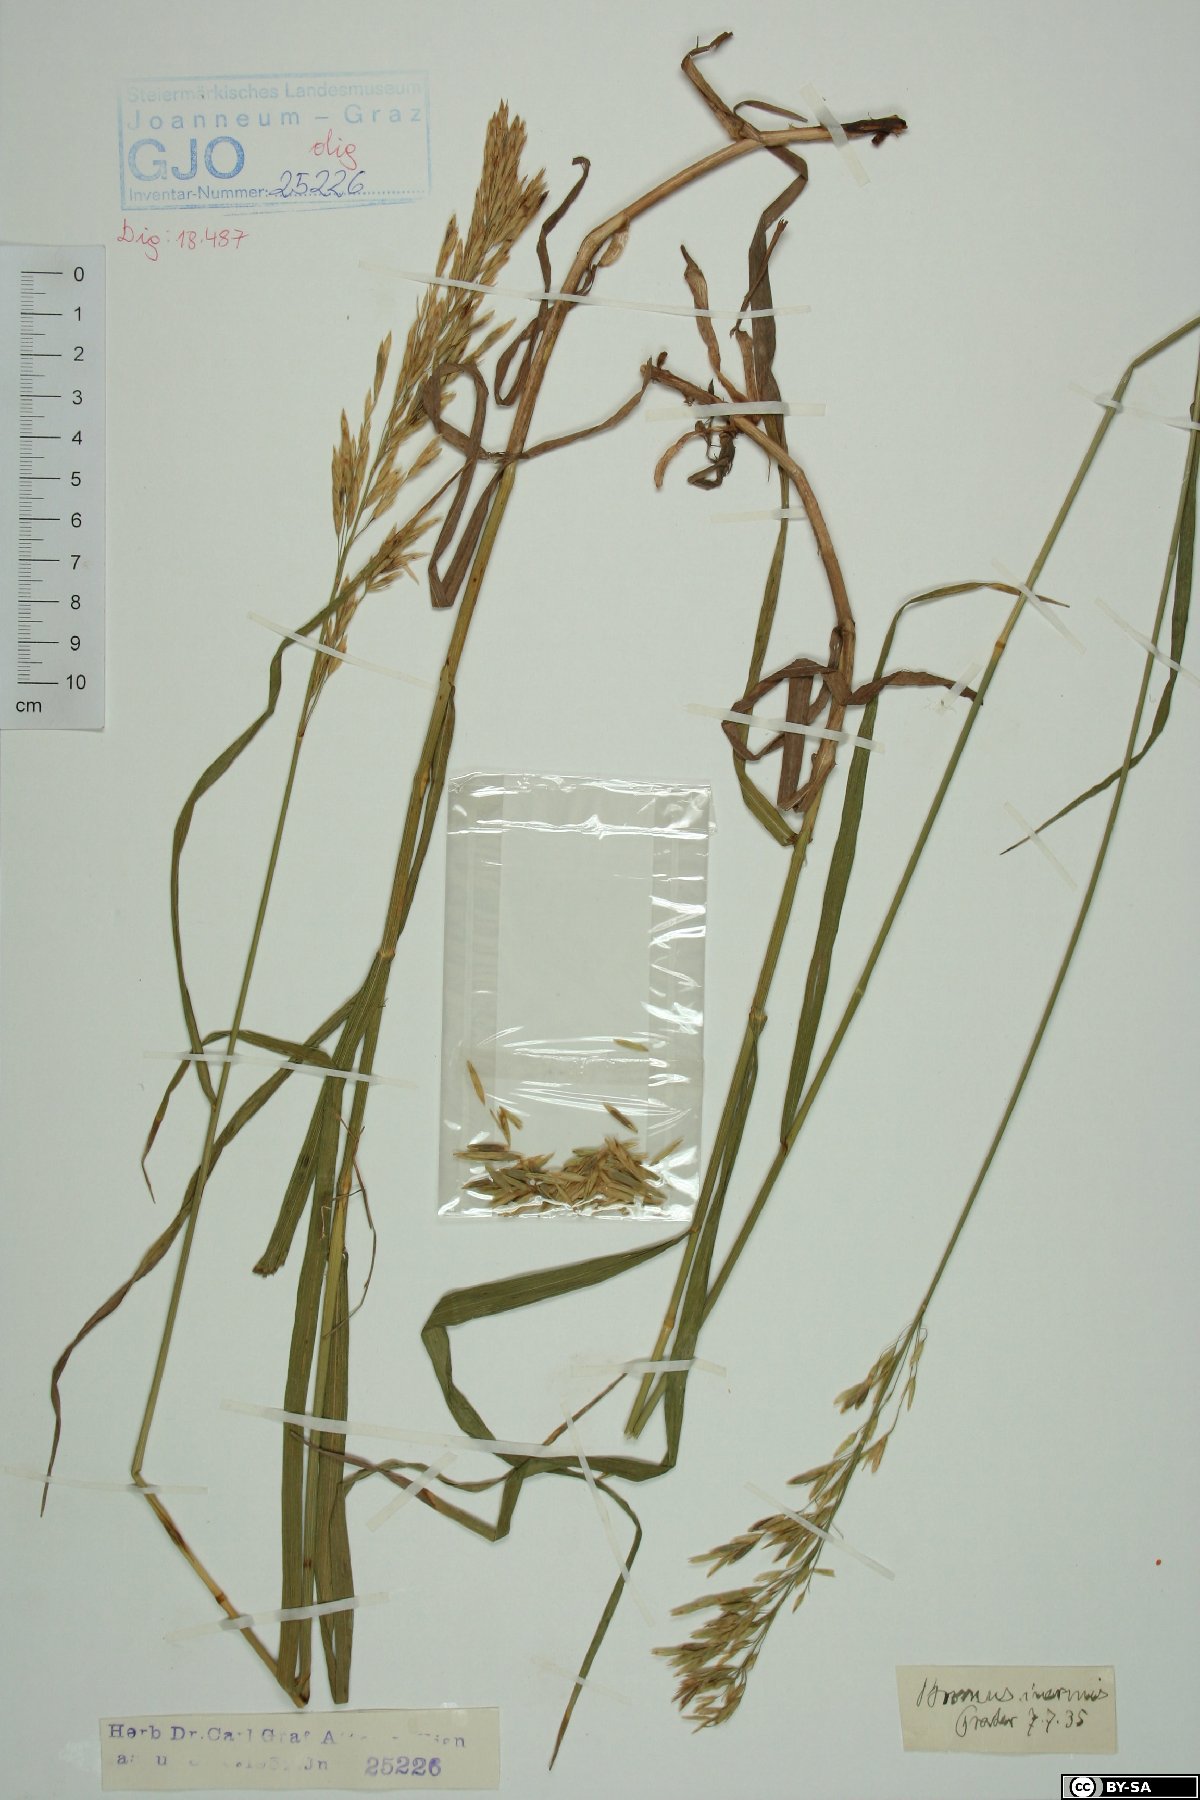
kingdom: Plantae
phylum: Tracheophyta
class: Liliopsida
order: Poales
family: Poaceae
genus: Bromus
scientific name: Bromus inermis
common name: Smooth brome
